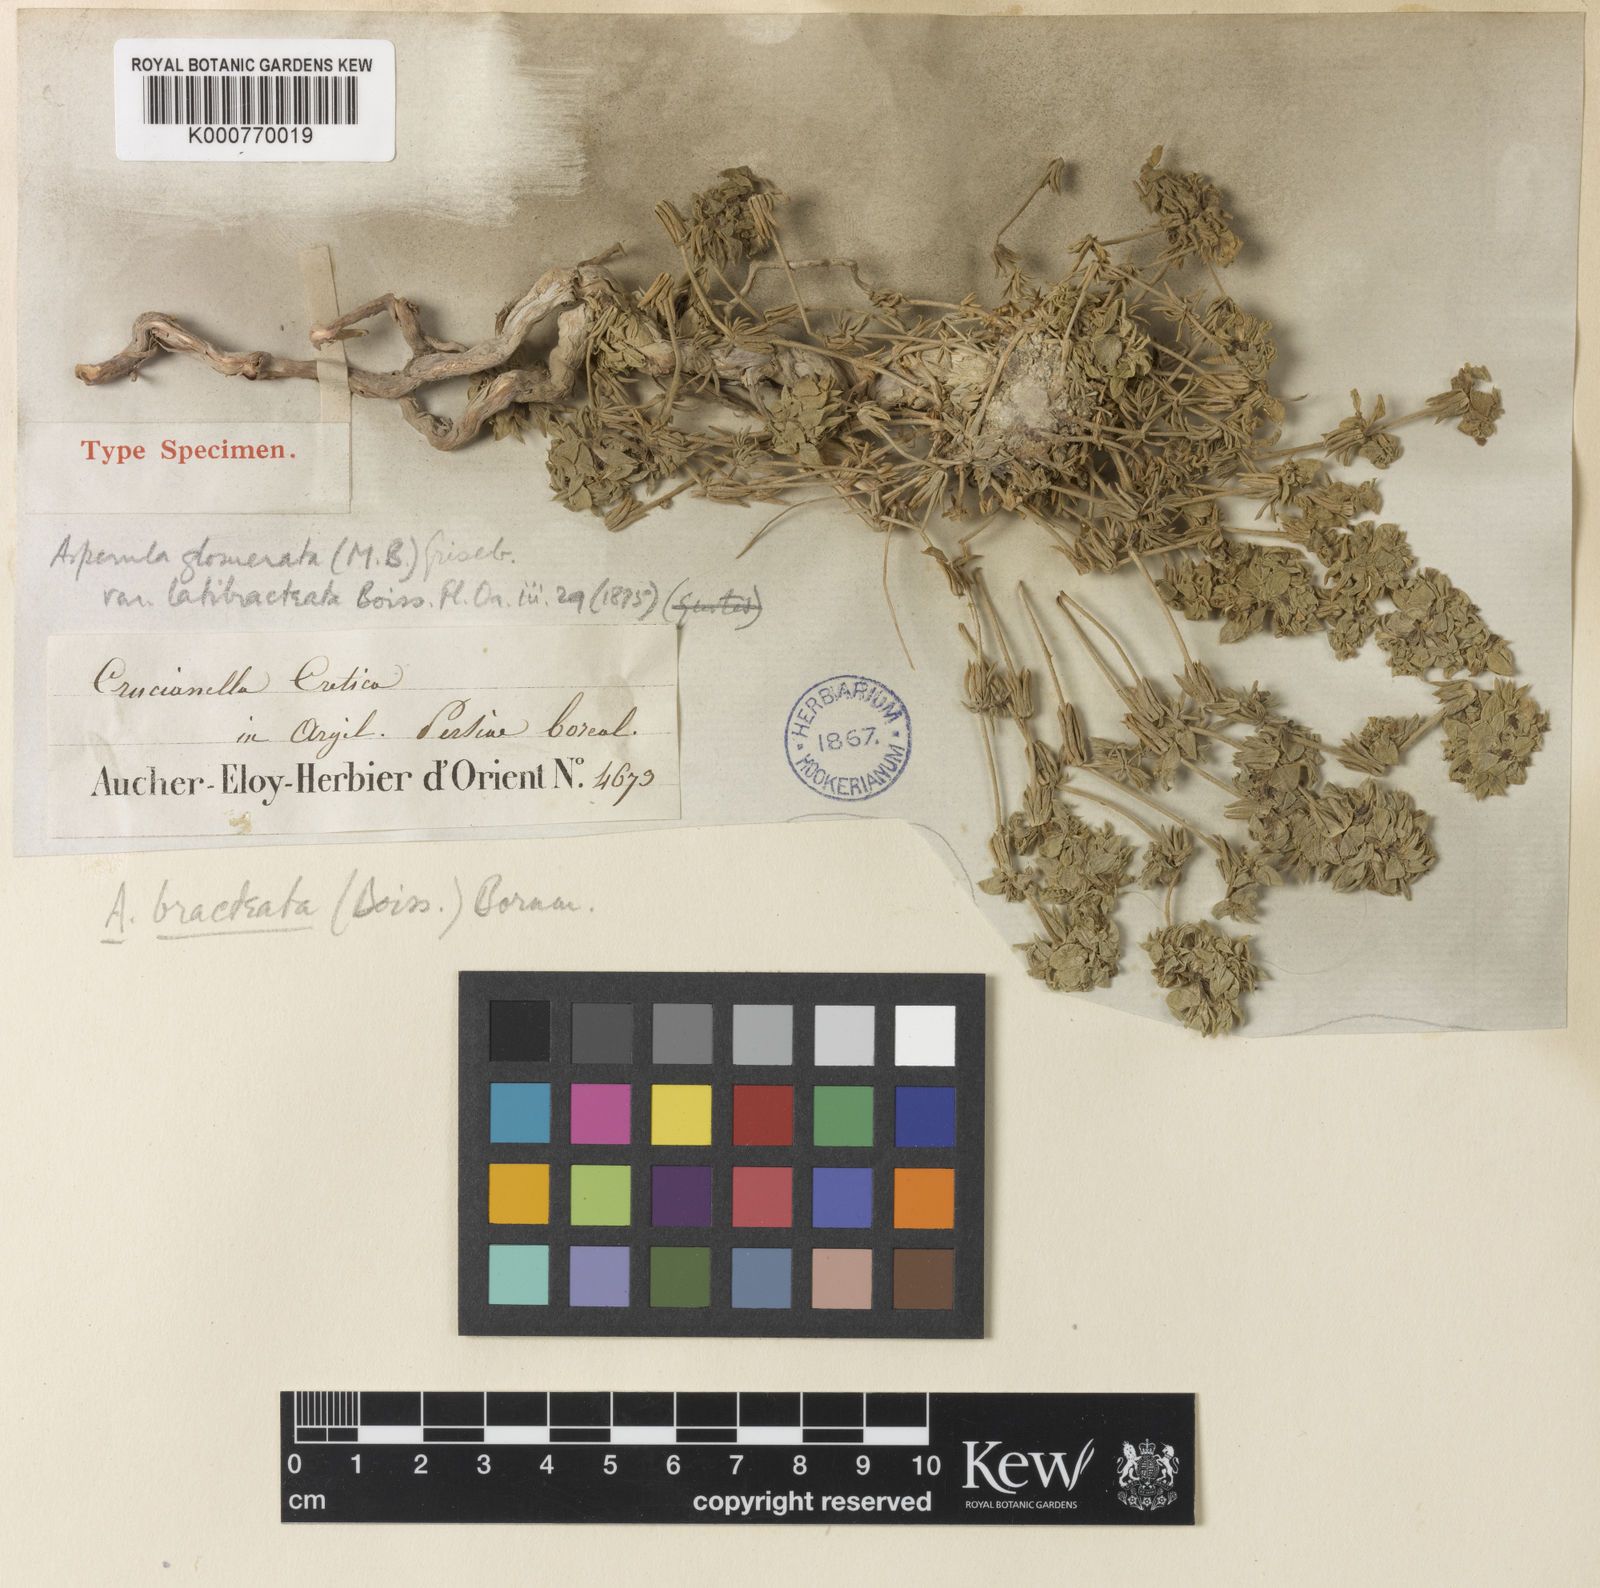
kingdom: Plantae
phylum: Tracheophyta
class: Magnoliopsida
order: Gentianales
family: Rubiaceae
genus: Asperula
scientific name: Asperula glomerata
